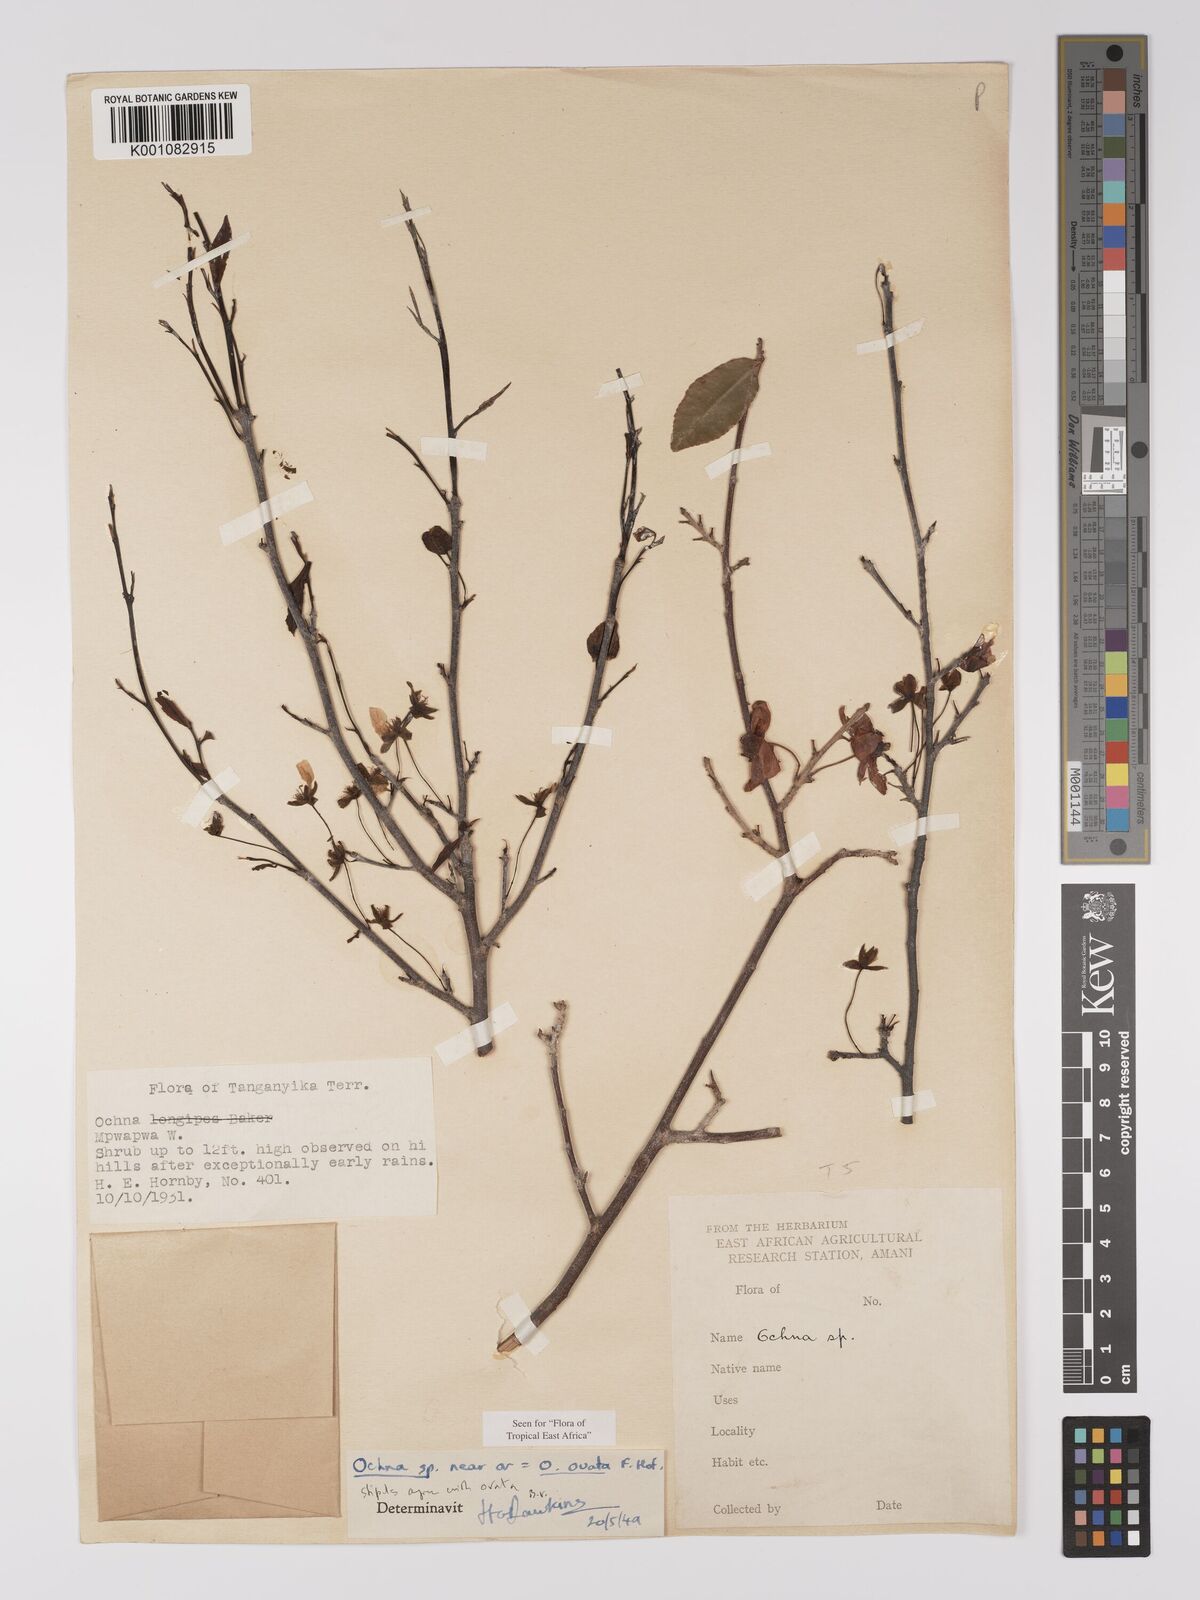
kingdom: Plantae
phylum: Tracheophyta
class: Magnoliopsida
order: Malpighiales
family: Ochnaceae
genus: Ochna
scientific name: Ochna ovata
